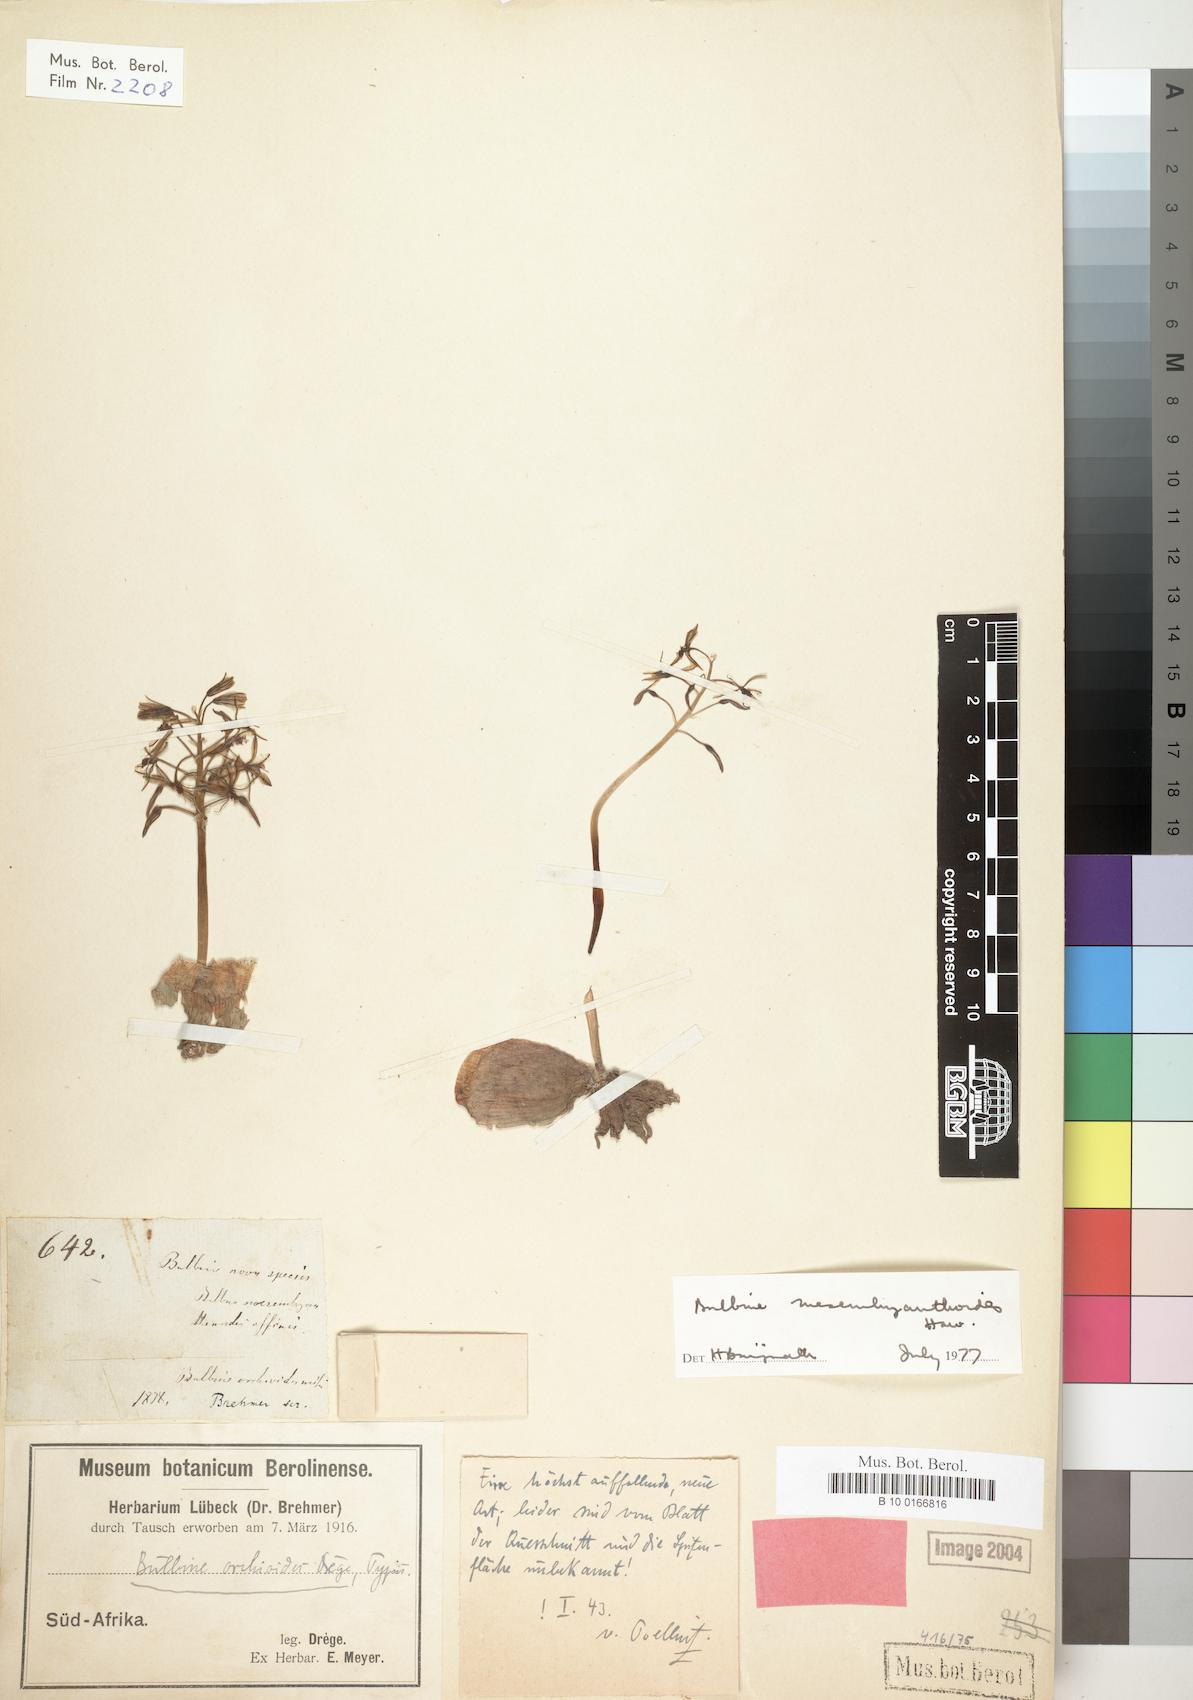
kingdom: Plantae
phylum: Tracheophyta
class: Liliopsida
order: Asparagales
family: Asphodelaceae
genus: Bulbine
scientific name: Bulbine mesembryanthoides
